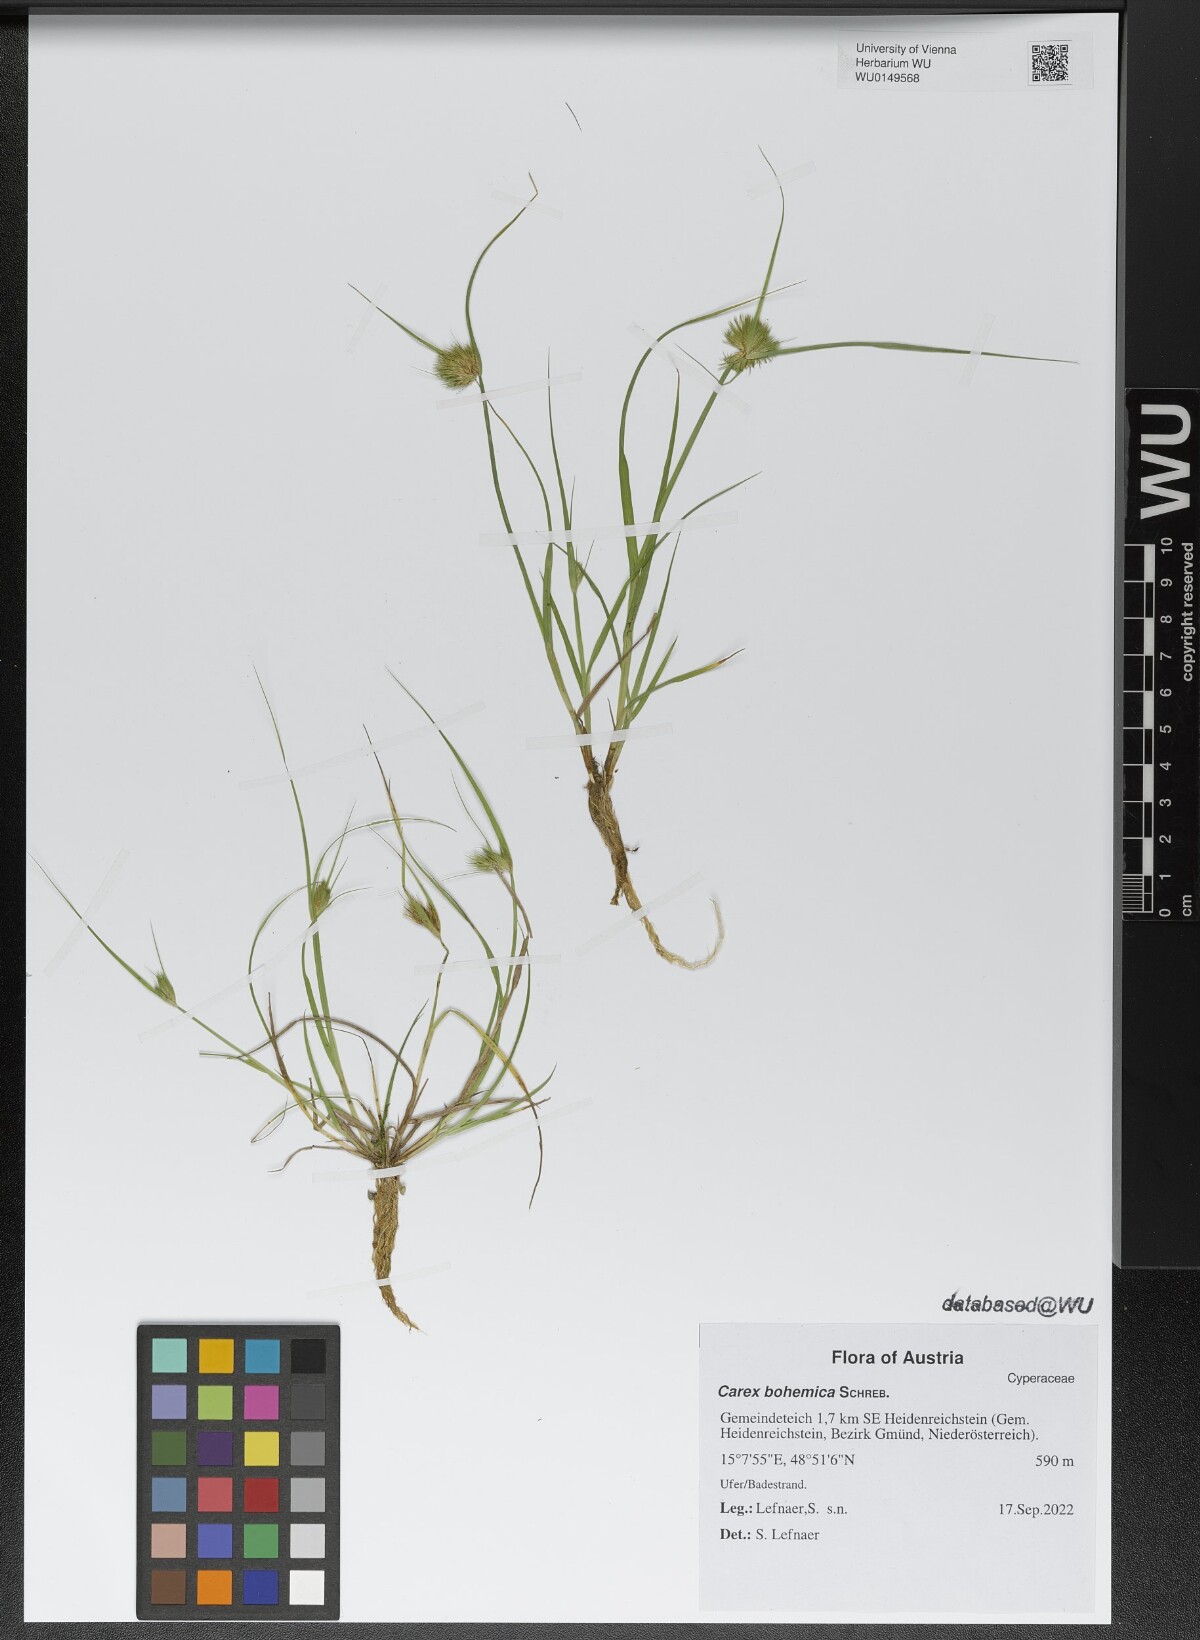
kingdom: Plantae
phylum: Tracheophyta
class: Liliopsida
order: Poales
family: Cyperaceae
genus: Carex
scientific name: Carex bohemica
